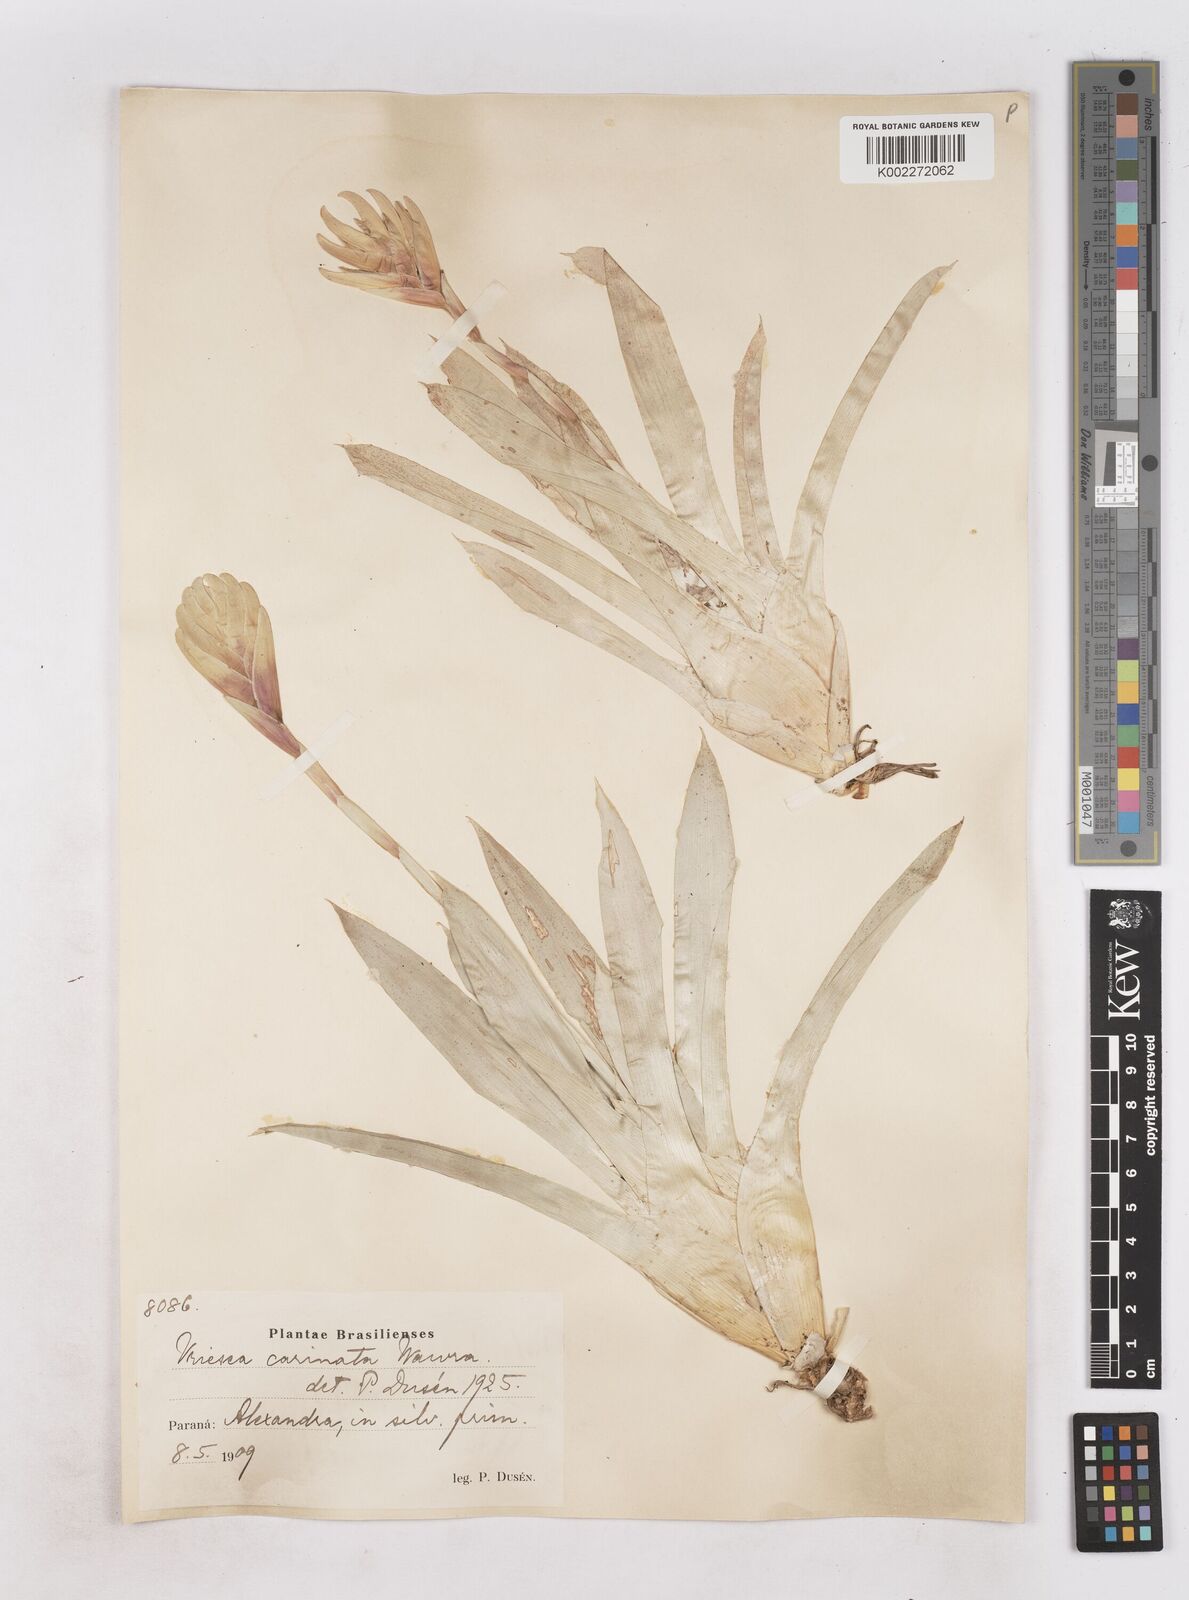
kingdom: Plantae
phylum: Tracheophyta
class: Liliopsida
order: Poales
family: Bromeliaceae
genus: Vriesea
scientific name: Vriesea carinata
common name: Lobster-claws
